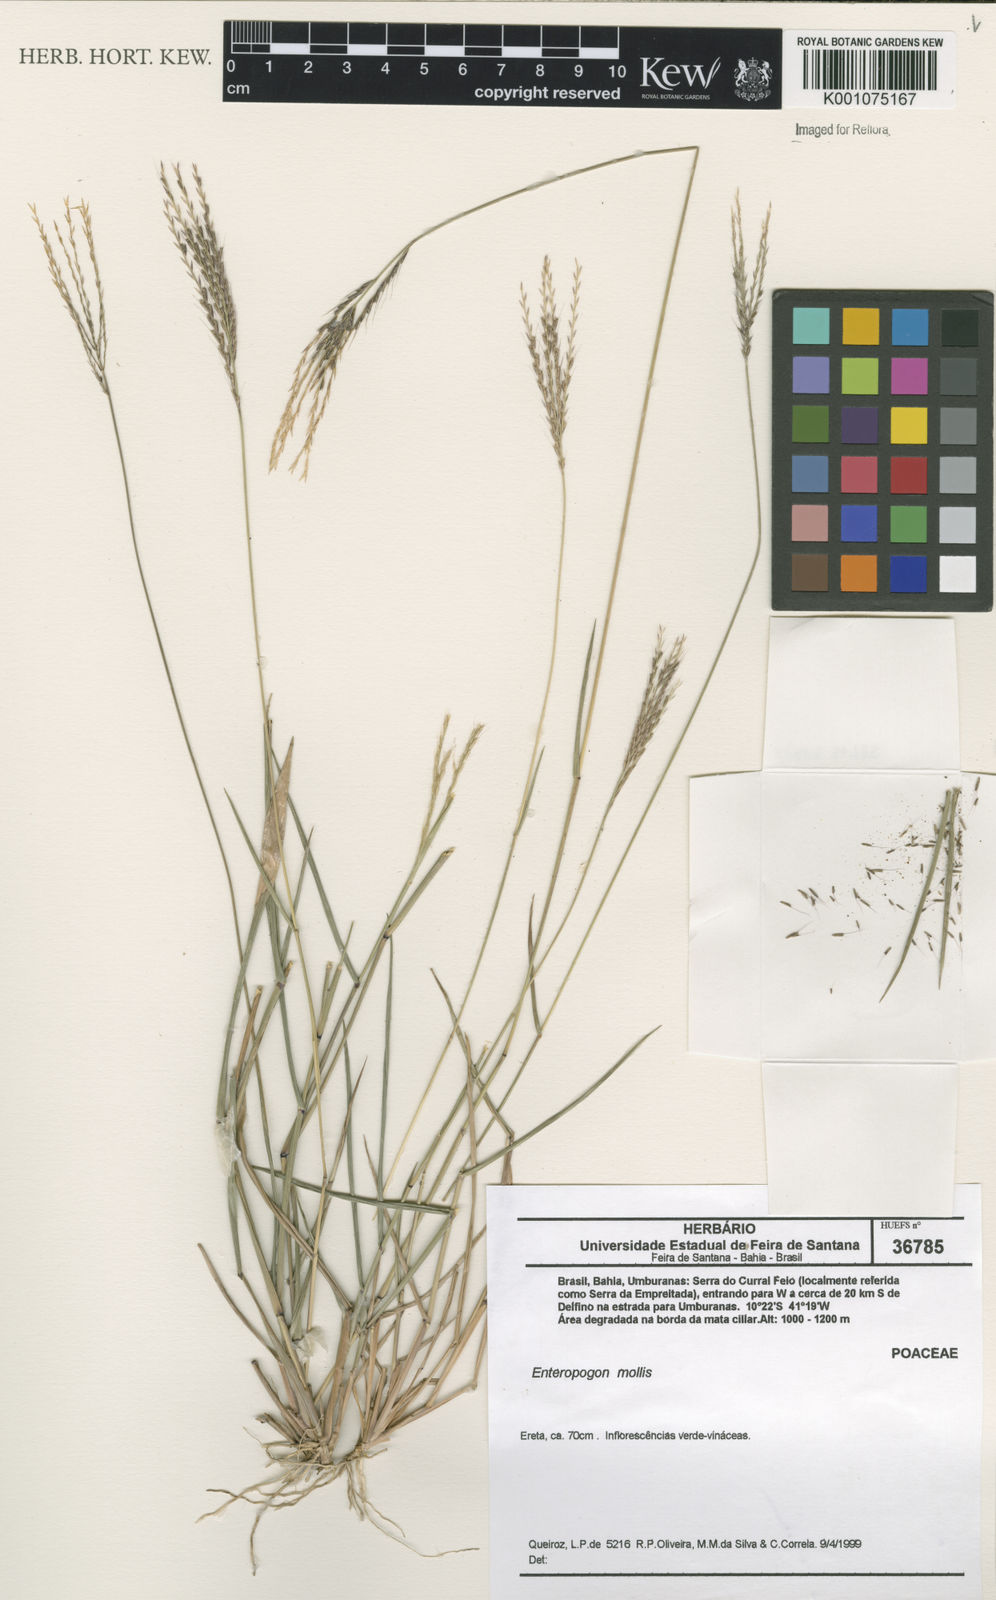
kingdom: Plantae
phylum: Tracheophyta
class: Liliopsida
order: Poales
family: Poaceae
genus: Leptochloa
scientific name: Leptochloa anisopoda
